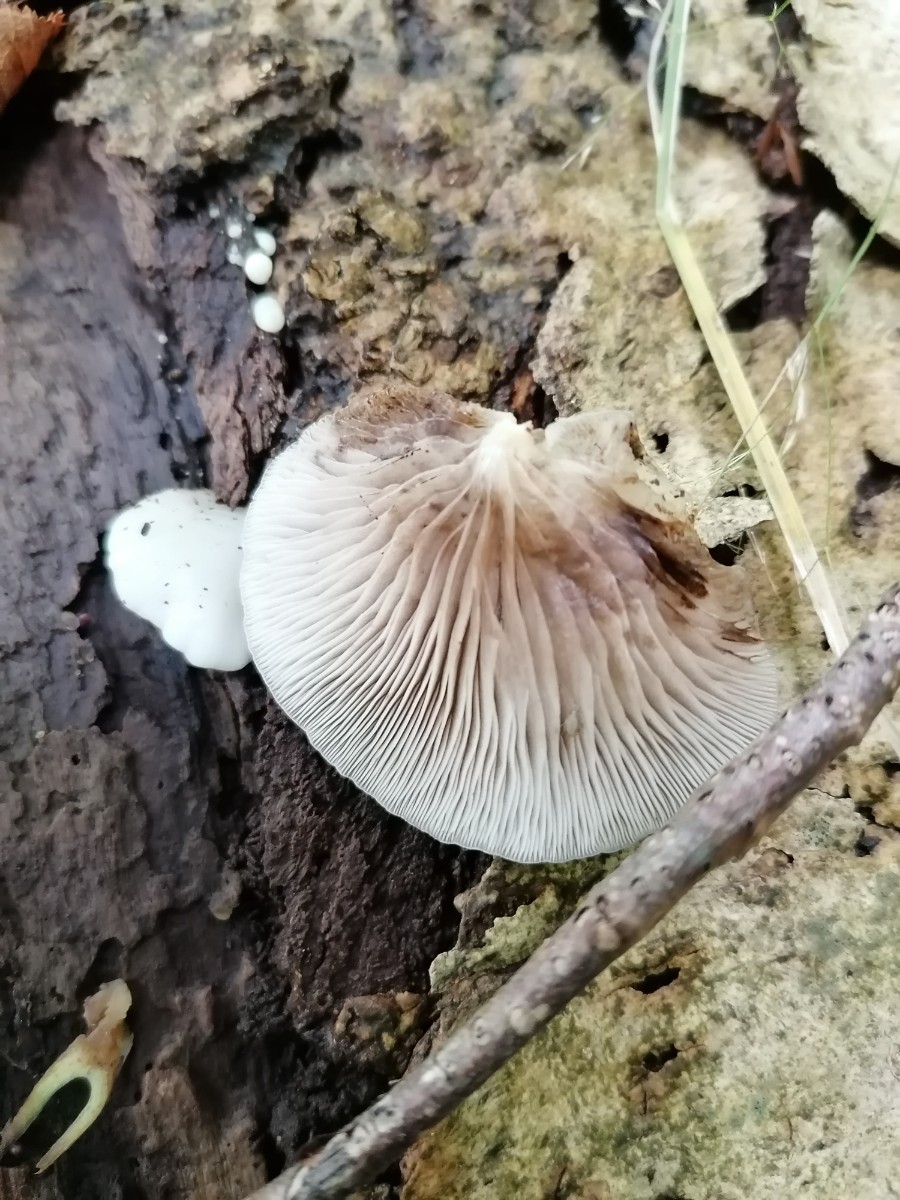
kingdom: Fungi
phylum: Basidiomycota
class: Agaricomycetes
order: Agaricales
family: Crepidotaceae
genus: Crepidotus
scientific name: Crepidotus mollis
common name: blød muslingesvamp
